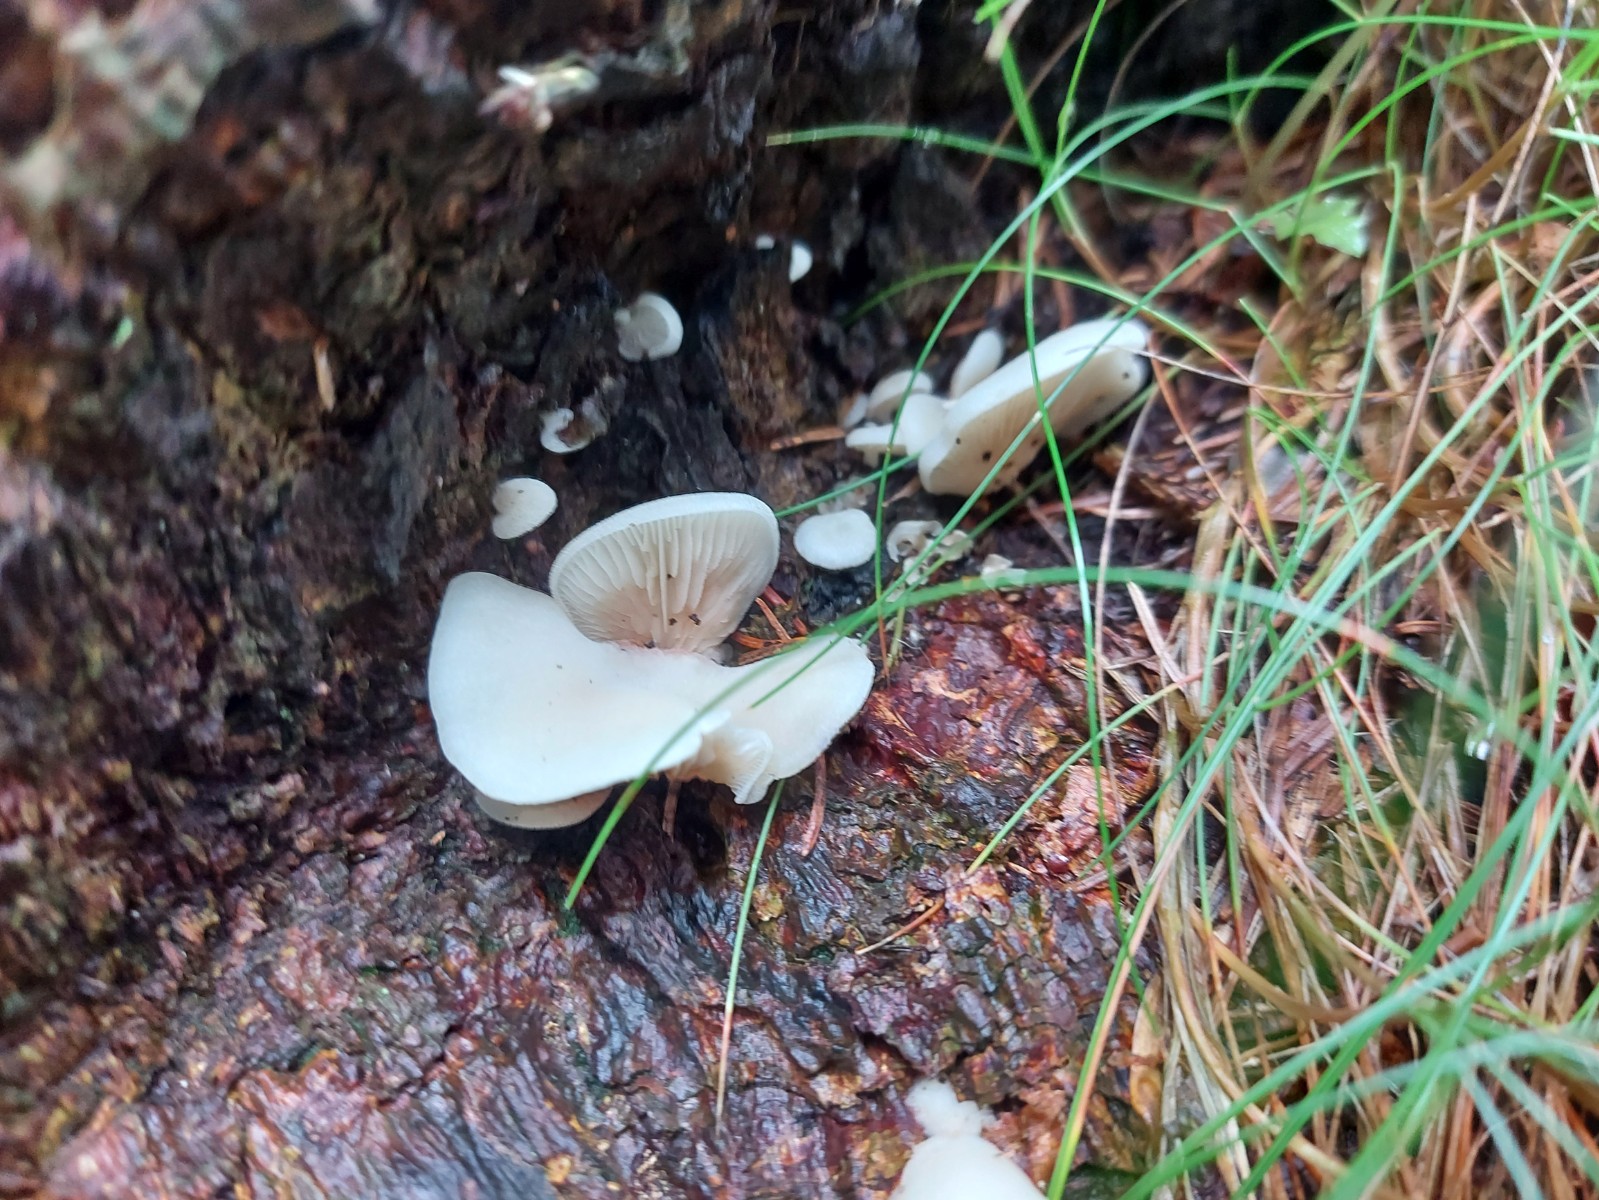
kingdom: Fungi
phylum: Basidiomycota
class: Agaricomycetes
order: Agaricales
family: Crepidotaceae
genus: Crepidotus
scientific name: Crepidotus
